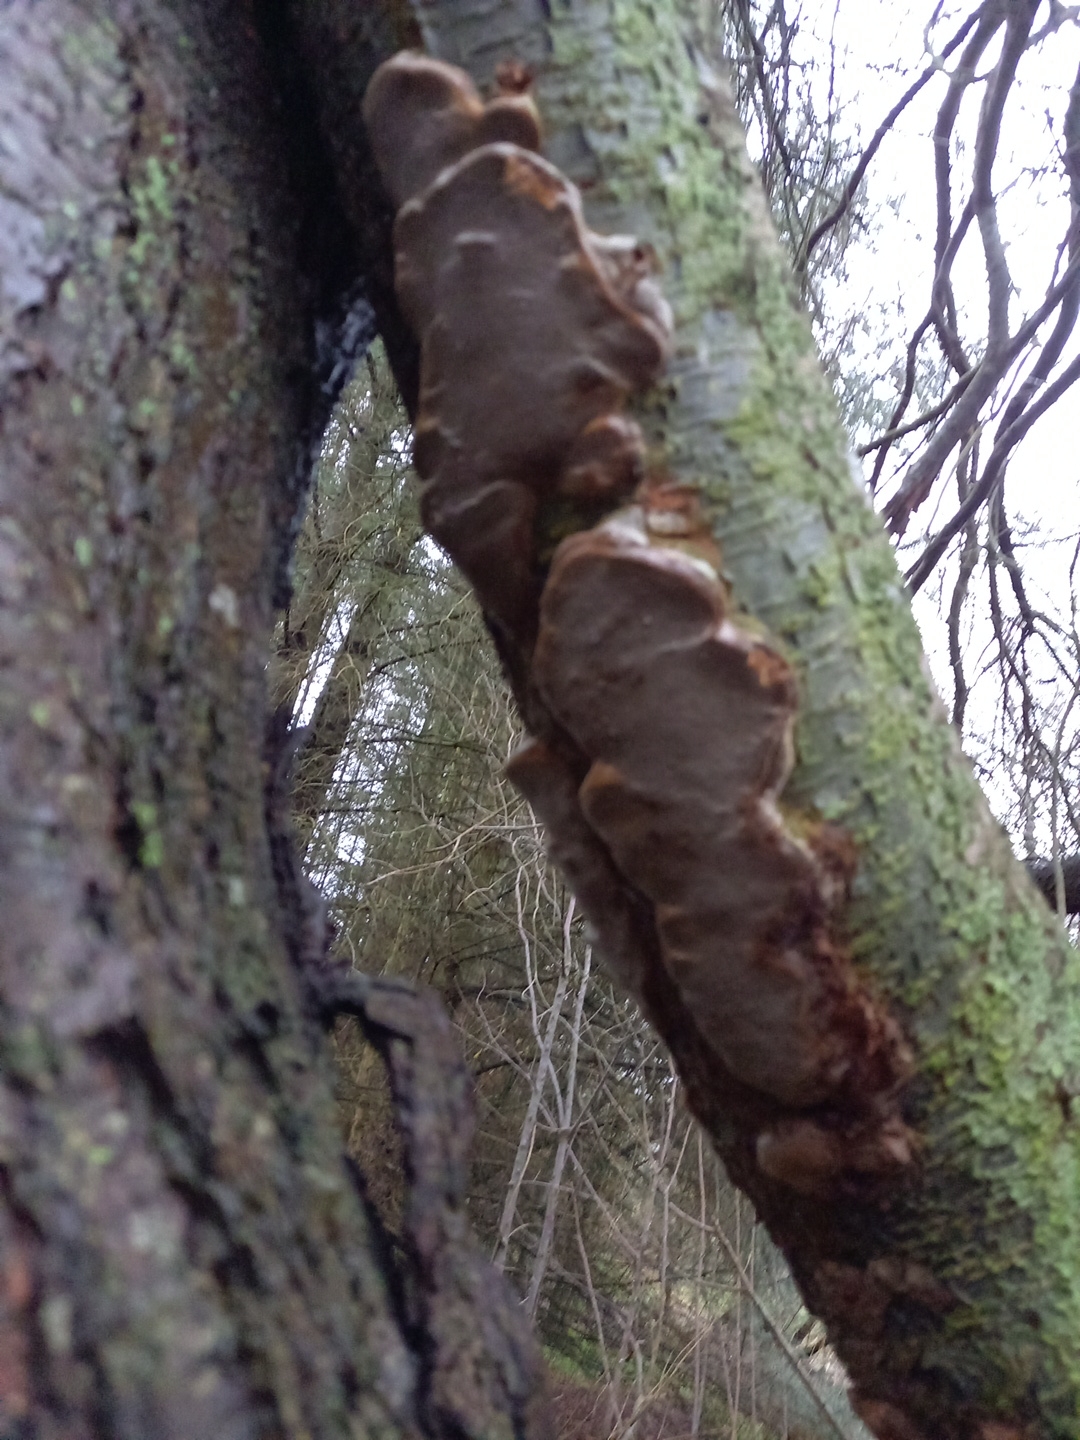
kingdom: Fungi
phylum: Basidiomycota
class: Agaricomycetes
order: Hymenochaetales
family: Hymenochaetaceae
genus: Phellinus
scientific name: Phellinus pomaceus
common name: blomme-ildporesvamp
